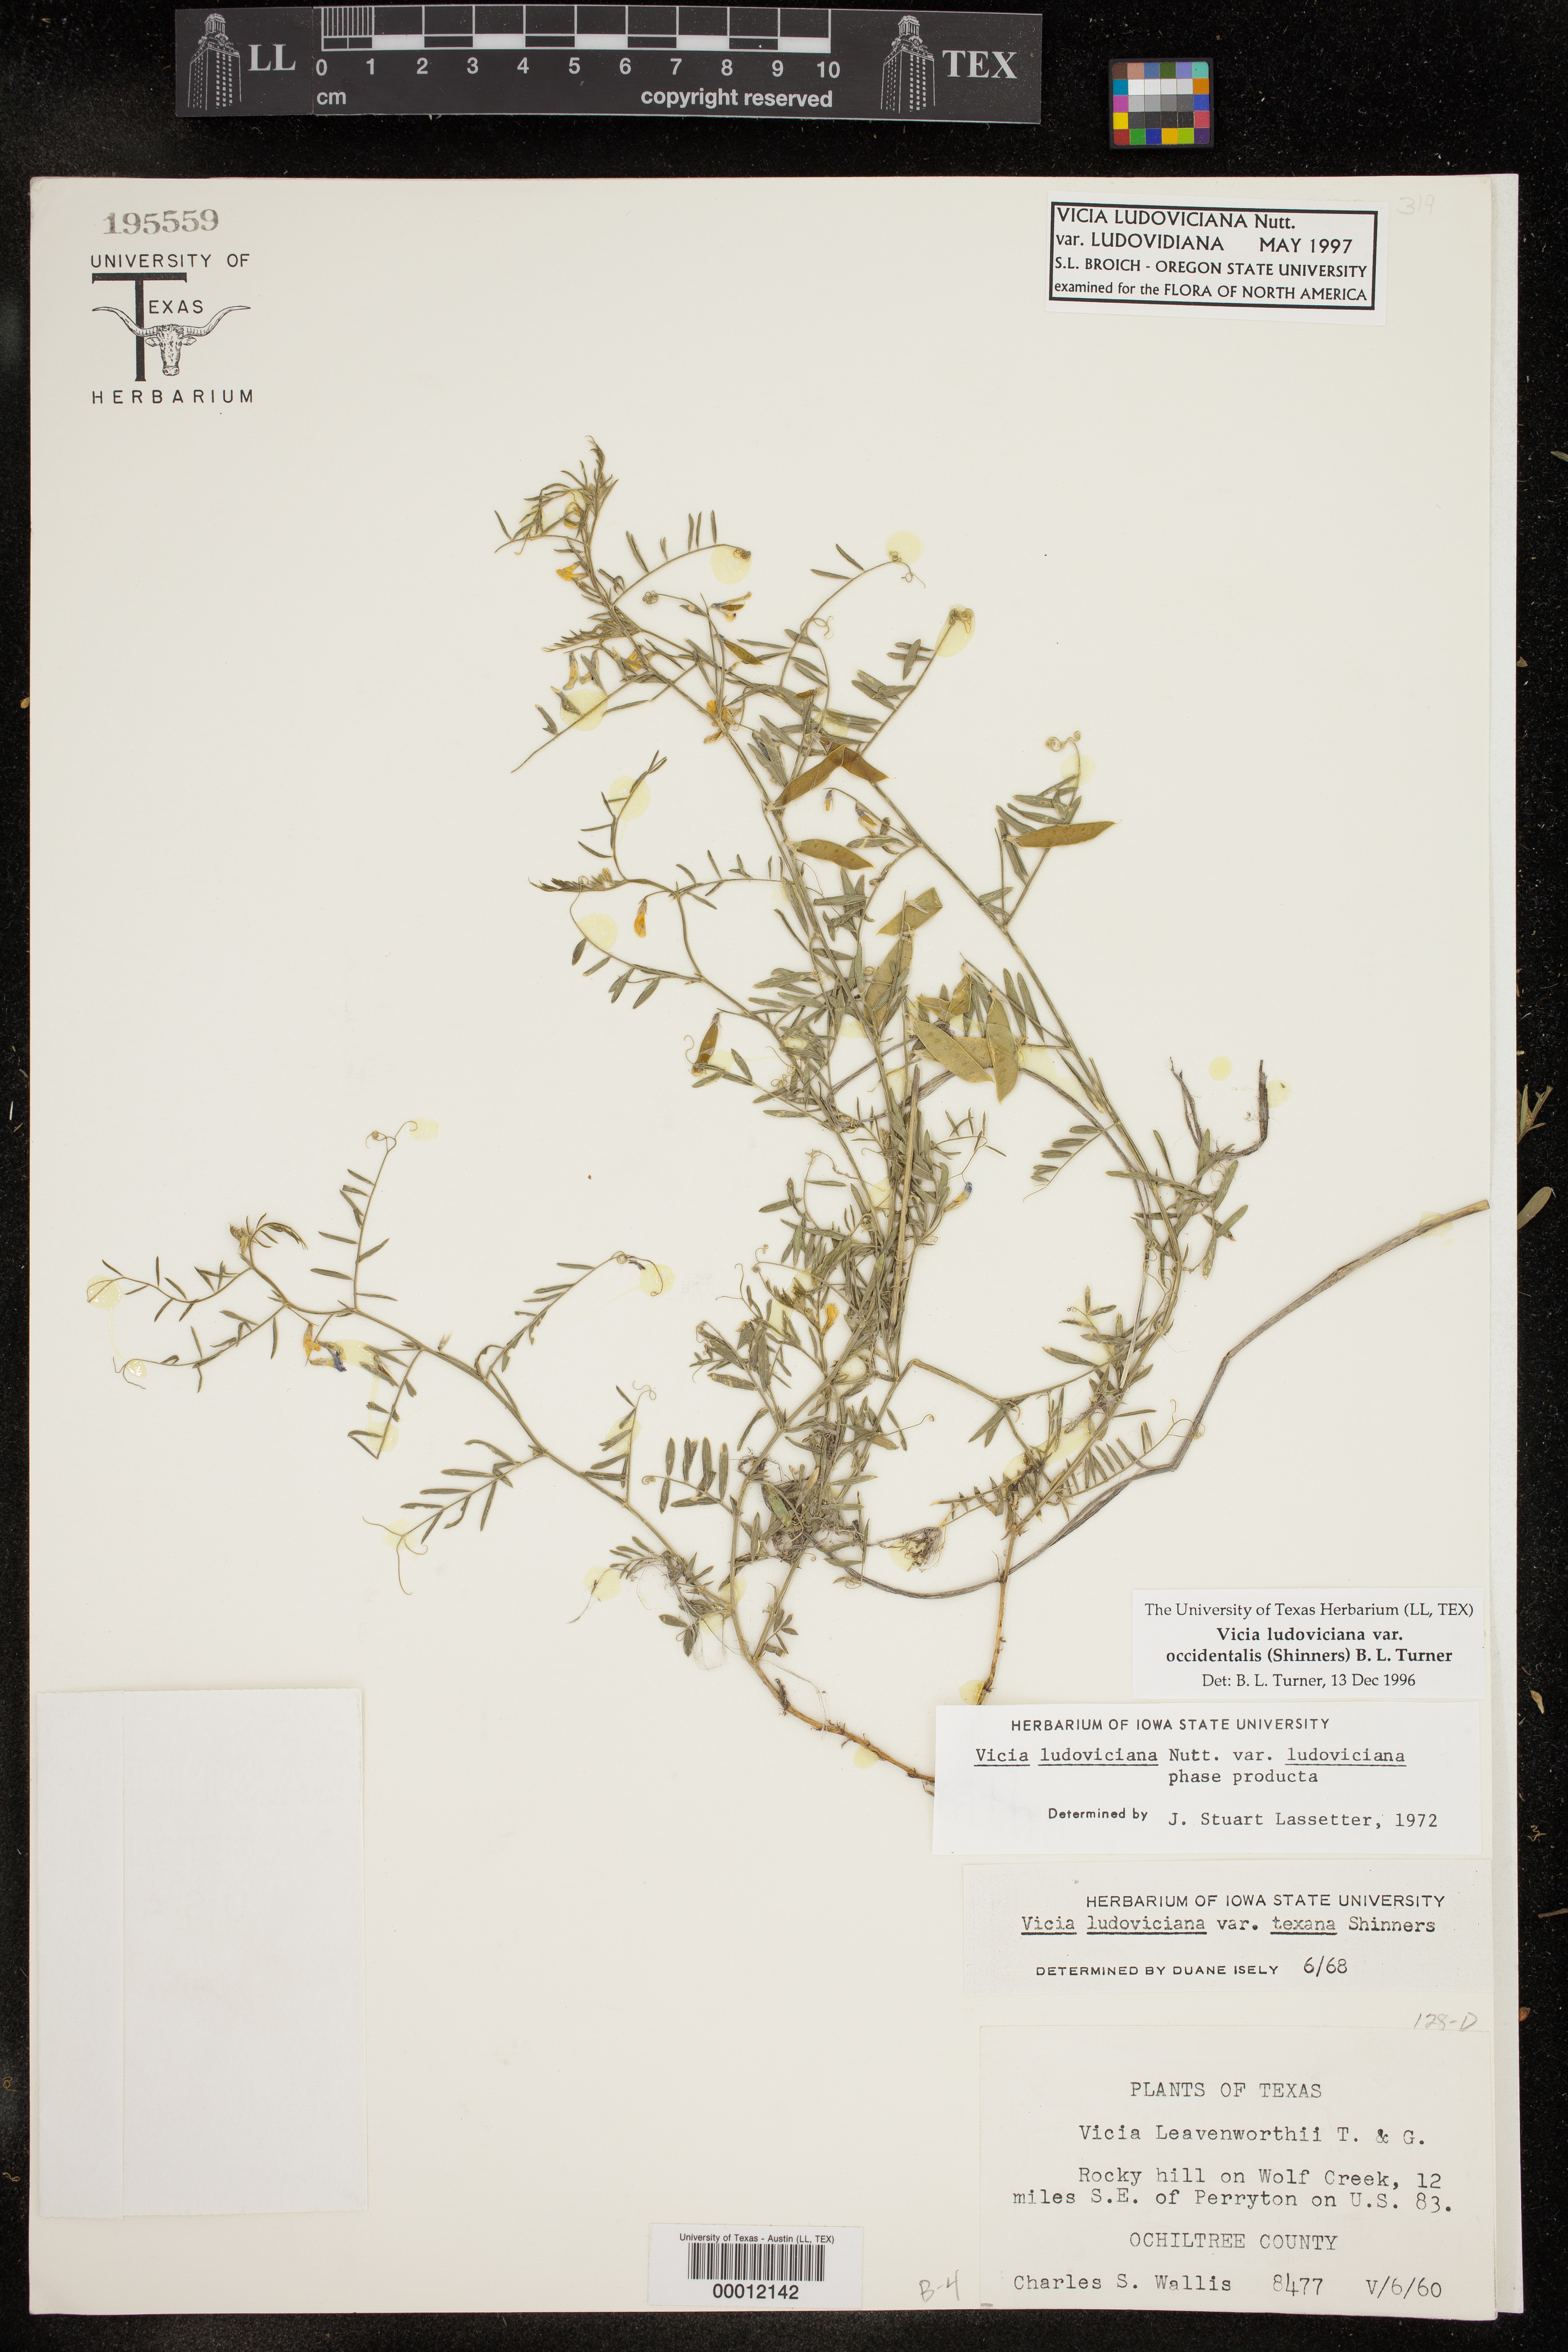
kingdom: Plantae
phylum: Tracheophyta
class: Magnoliopsida
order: Fabales
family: Fabaceae
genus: Vicia
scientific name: Vicia ludoviciana
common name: Louisiana vetch
